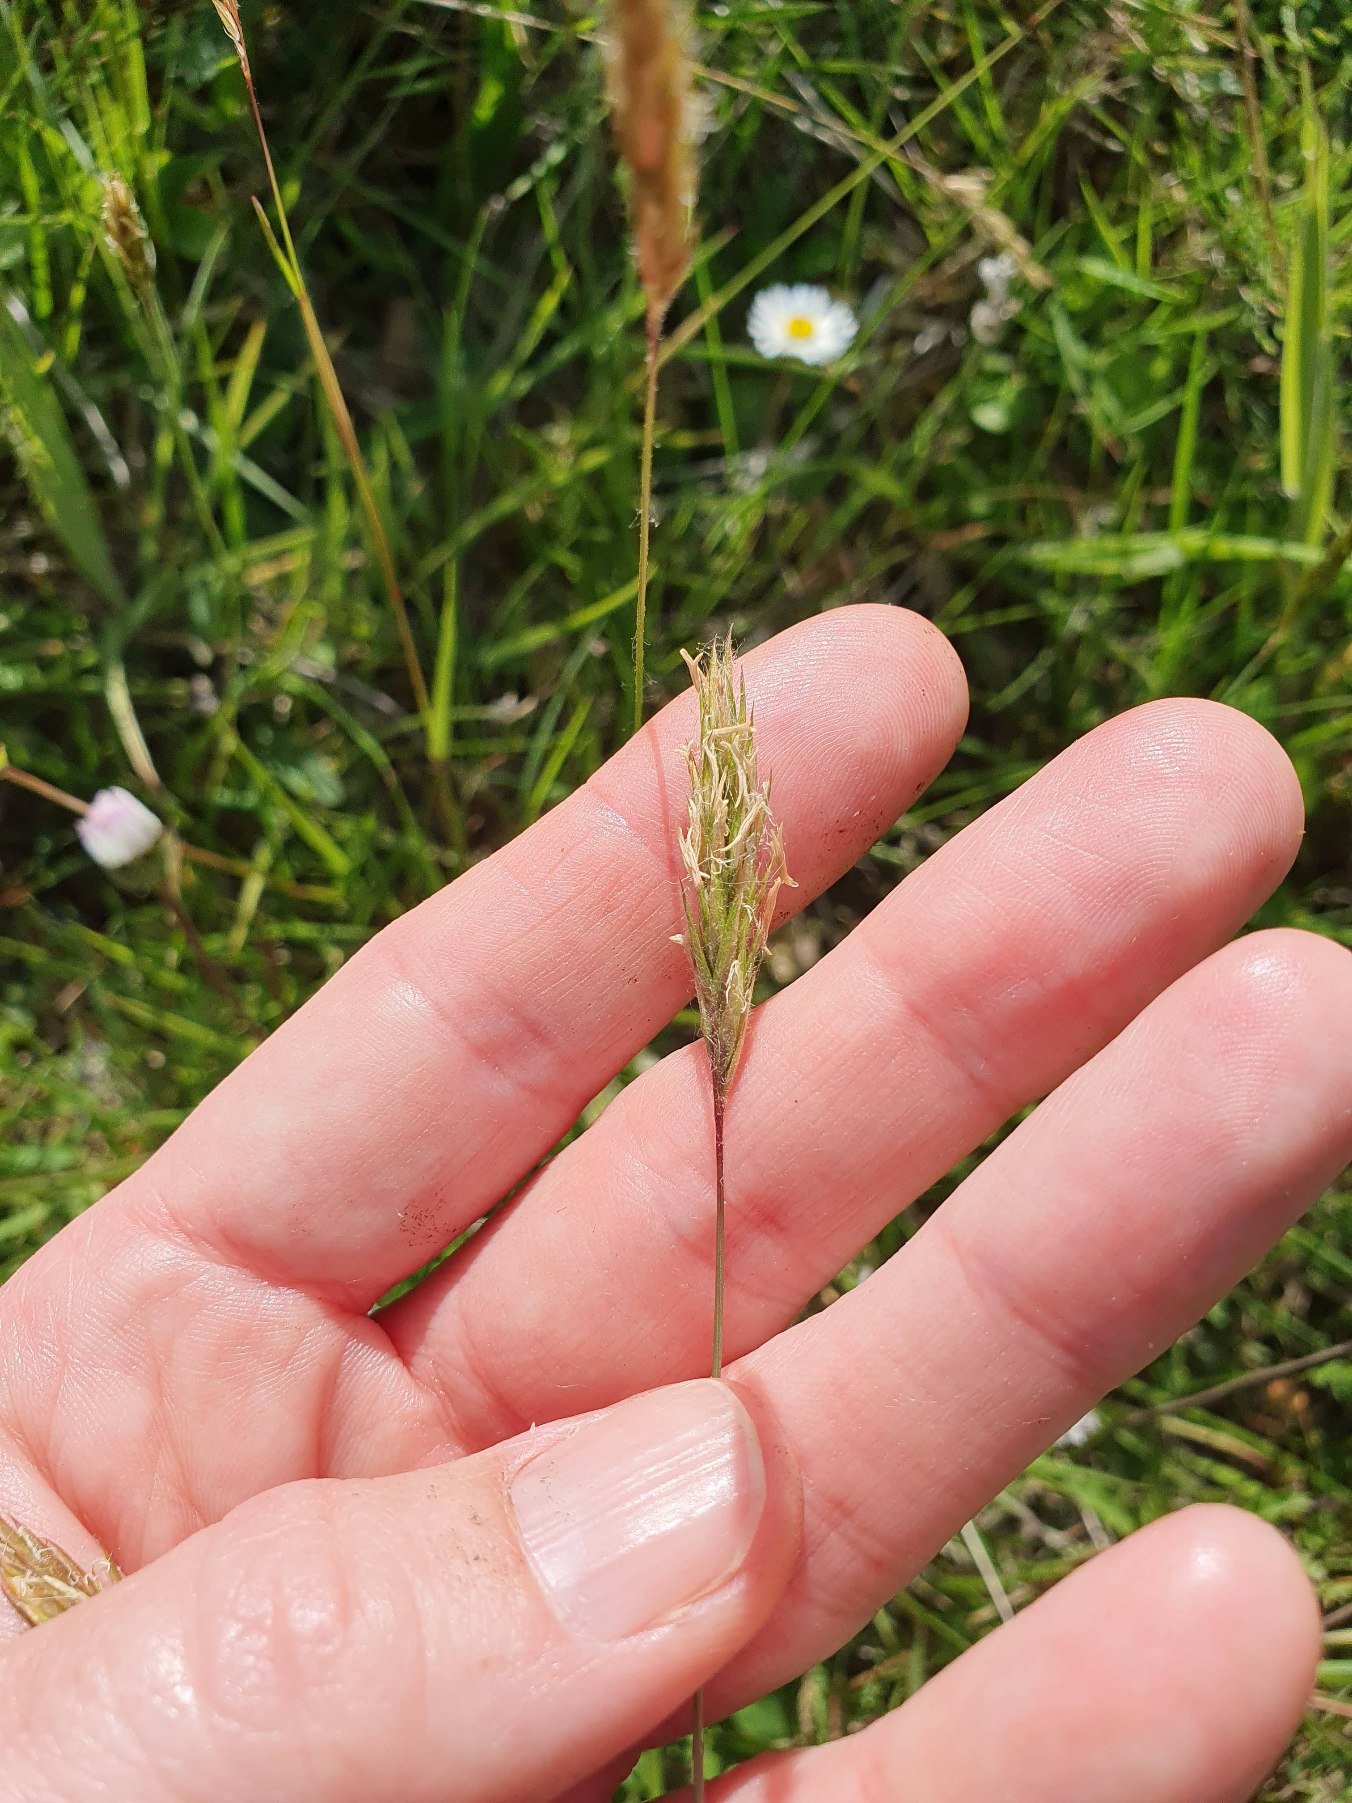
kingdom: Plantae
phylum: Tracheophyta
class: Liliopsida
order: Poales
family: Poaceae
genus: Anthoxanthum
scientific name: Anthoxanthum odoratum
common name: Vellugtende gulaks
